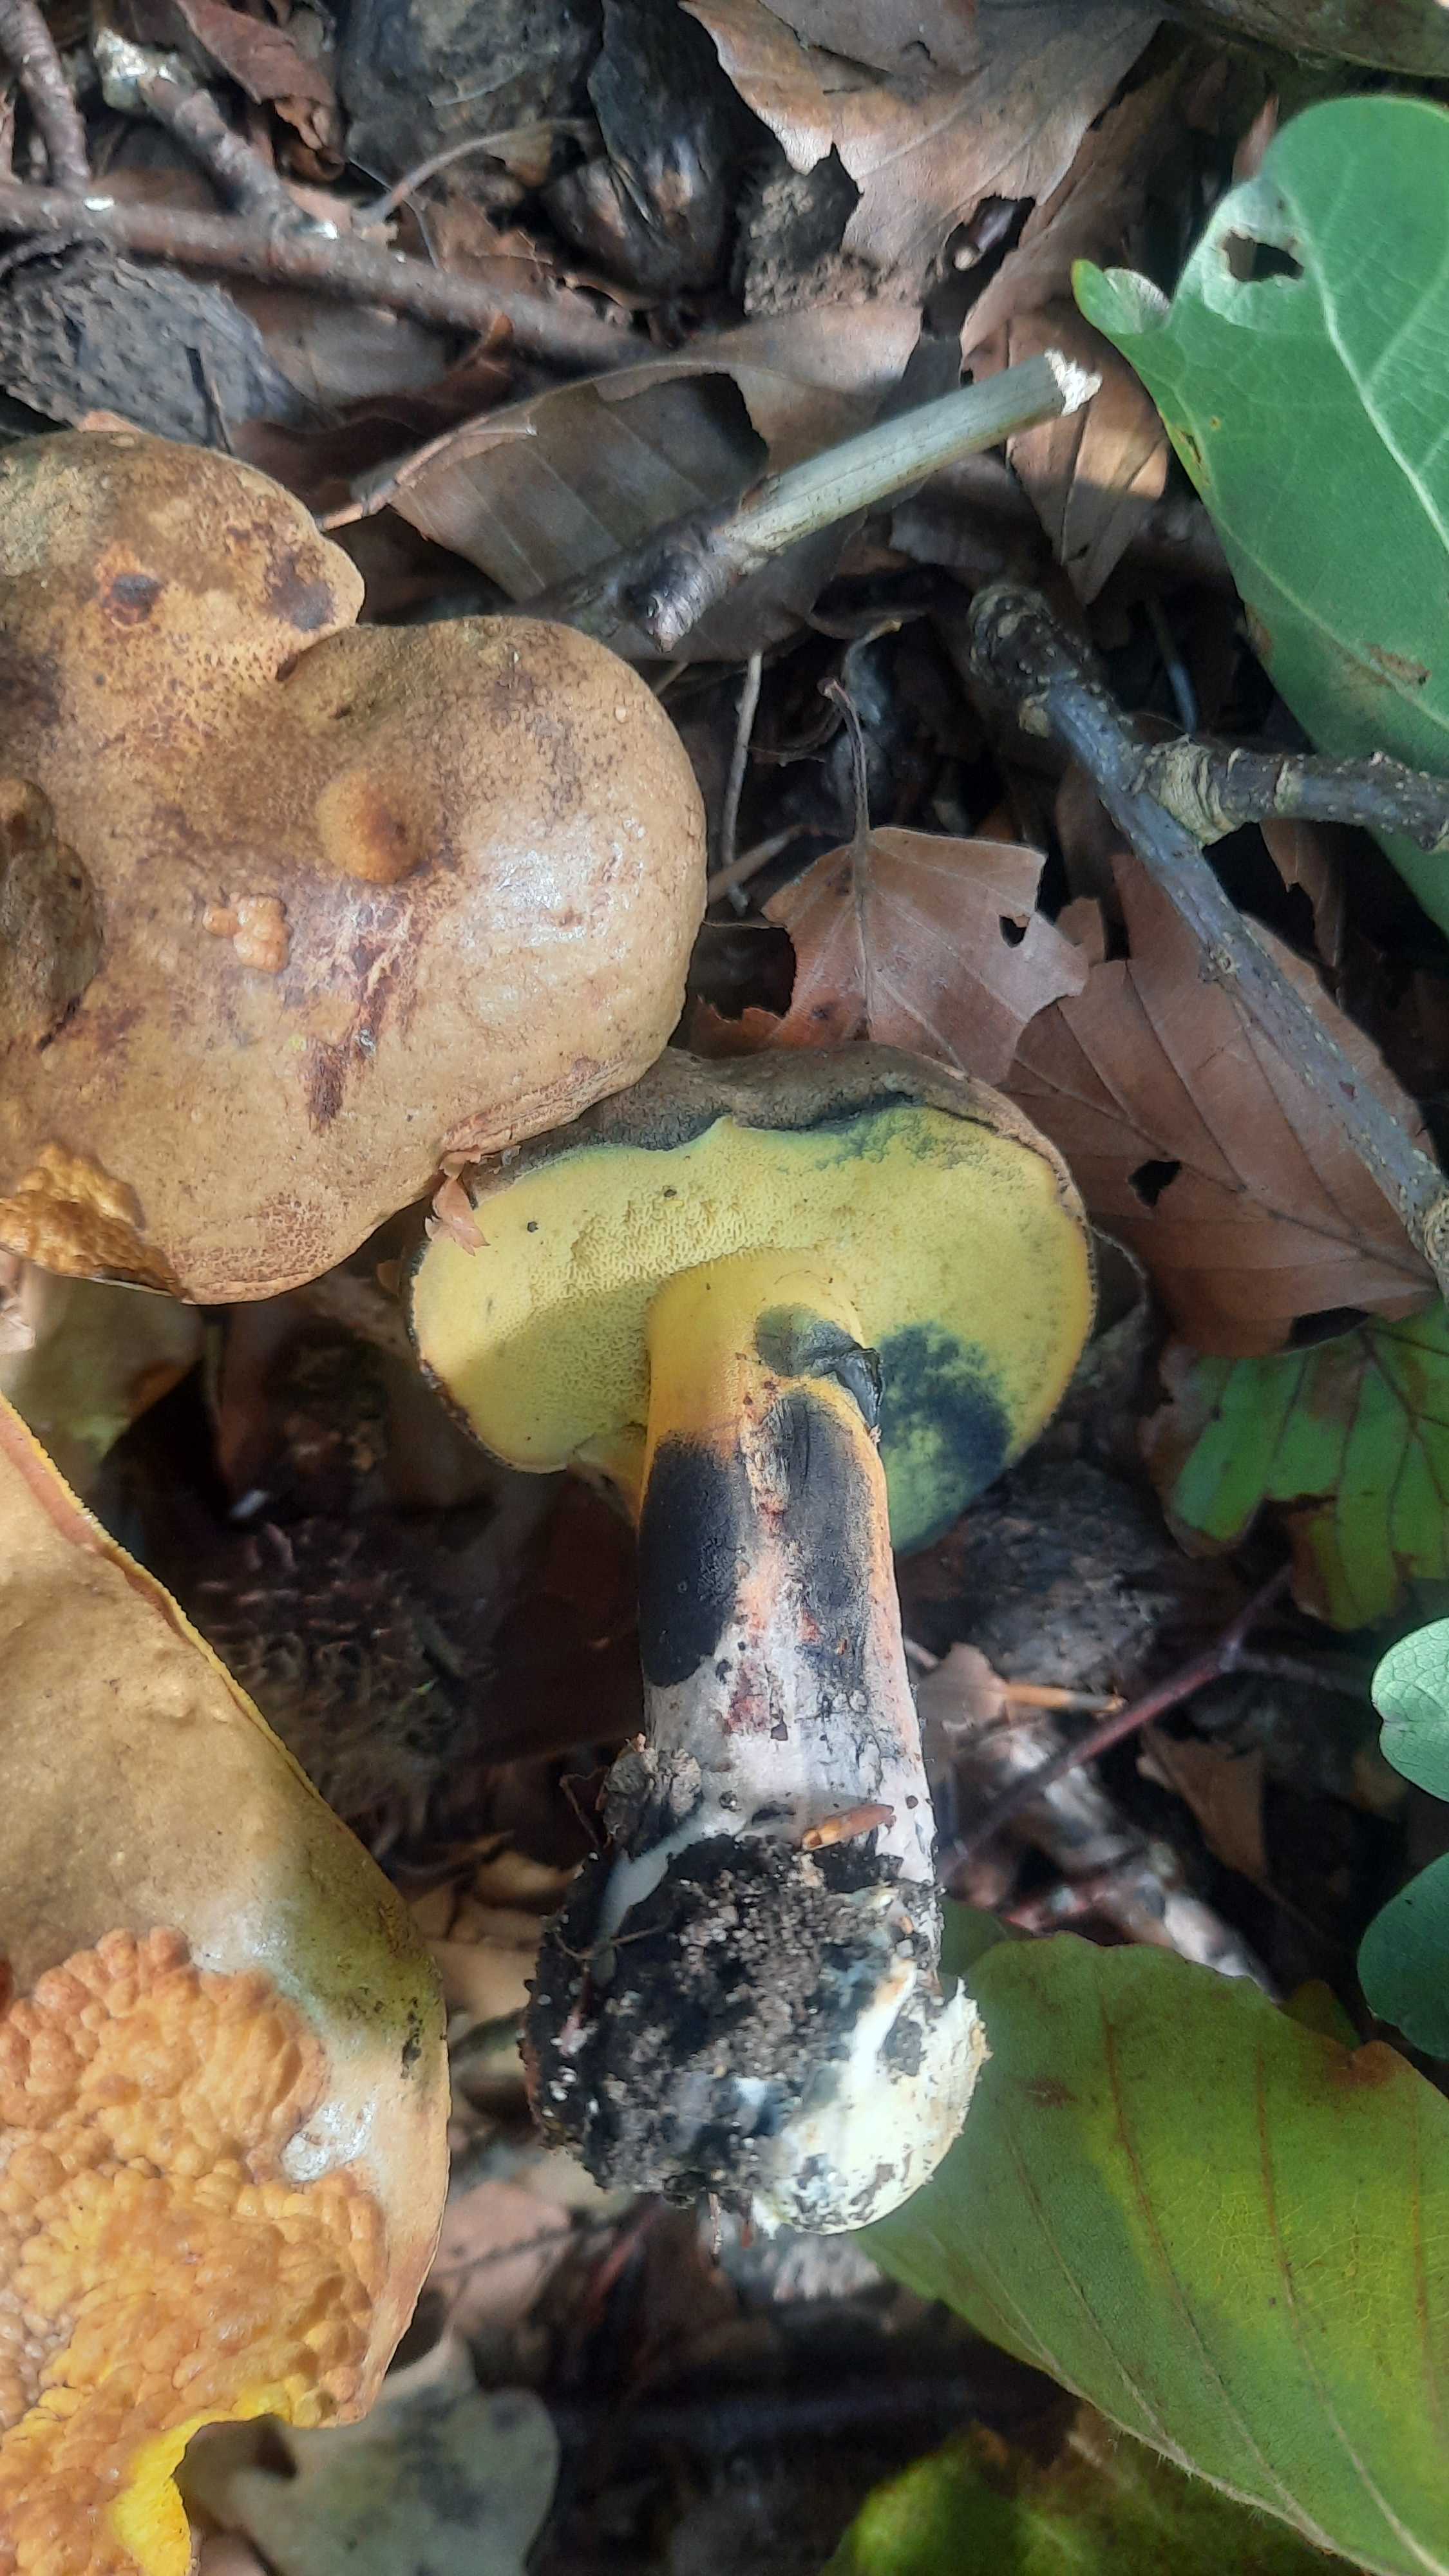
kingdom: Fungi
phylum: Basidiomycota
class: Agaricomycetes
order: Boletales
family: Boletaceae
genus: Cyanoboletus
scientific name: Cyanoboletus pulverulentus
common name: sortblånende rørhat
